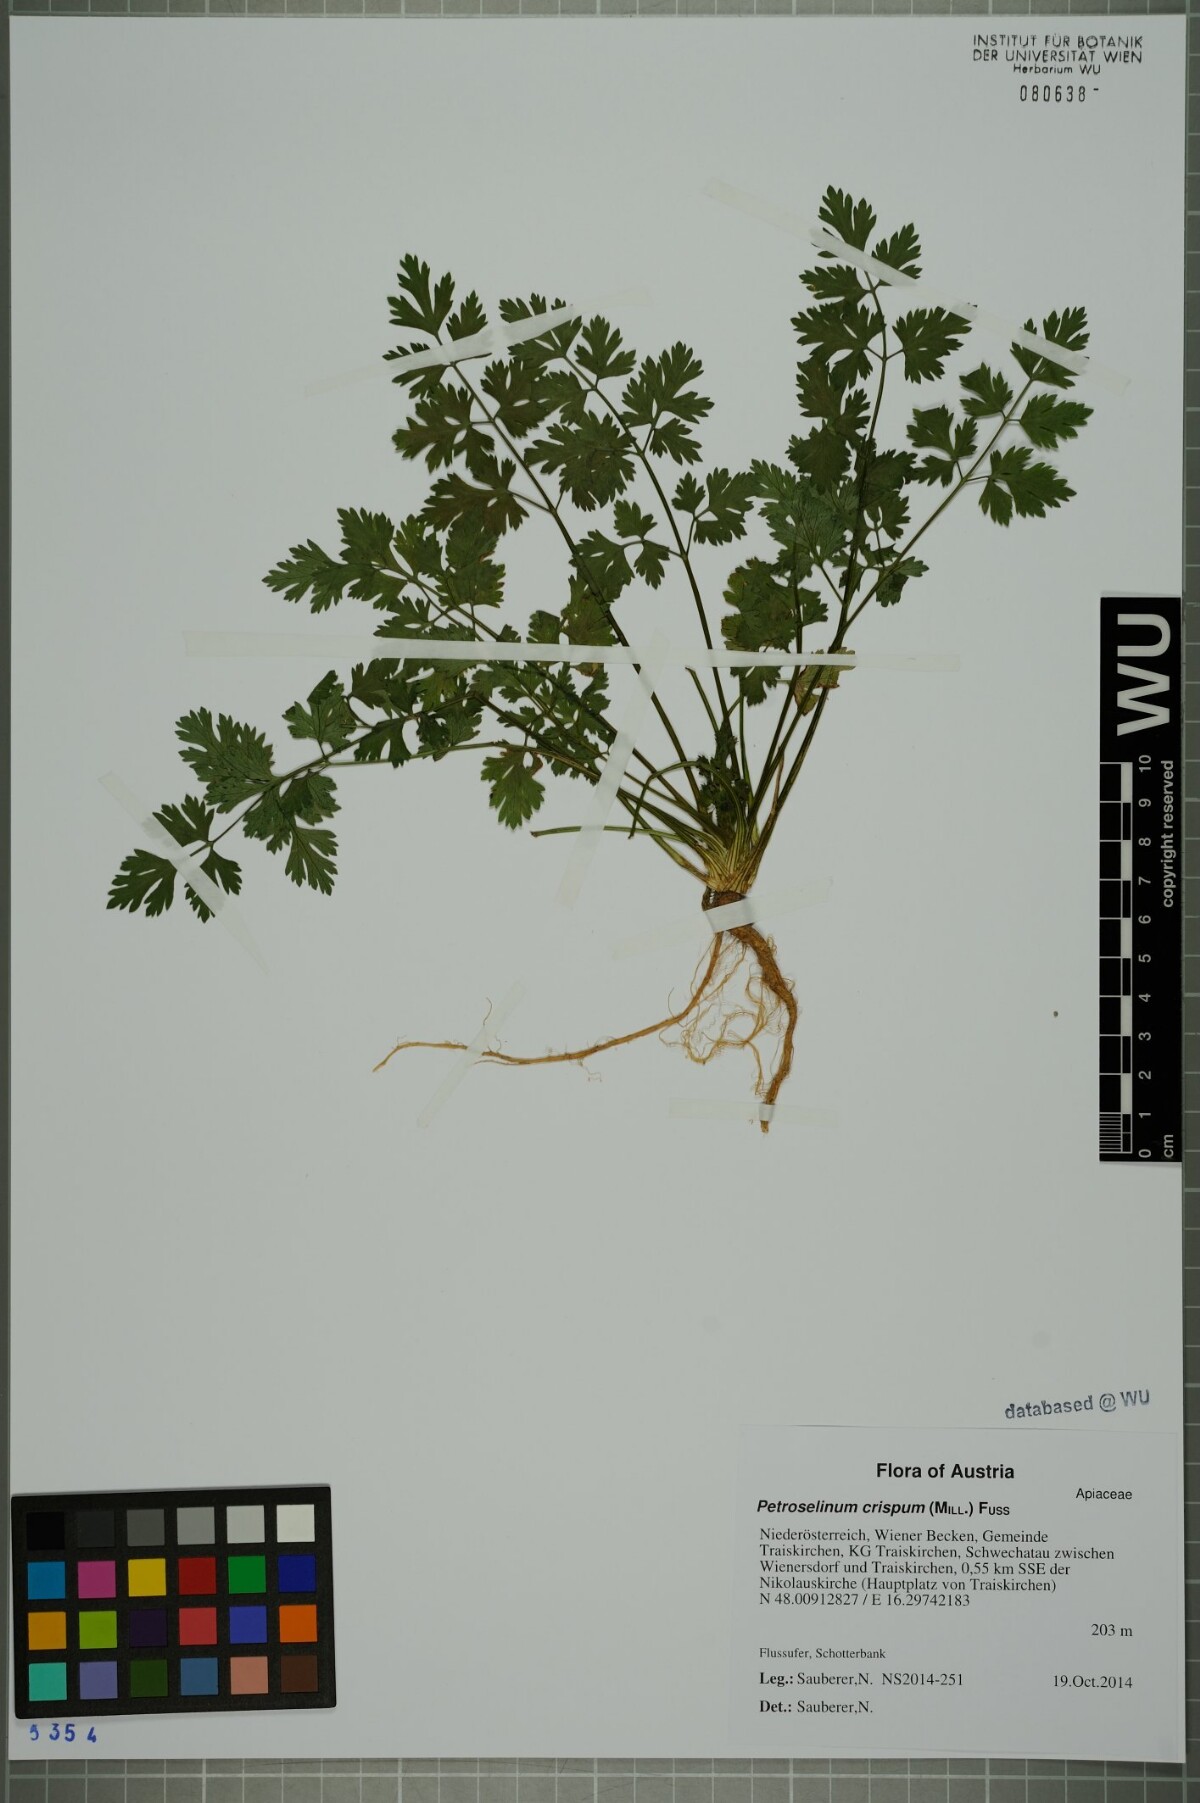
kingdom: Plantae
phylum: Tracheophyta
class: Magnoliopsida
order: Apiales
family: Apiaceae
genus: Petroselinum
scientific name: Petroselinum crispum
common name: Parsley
